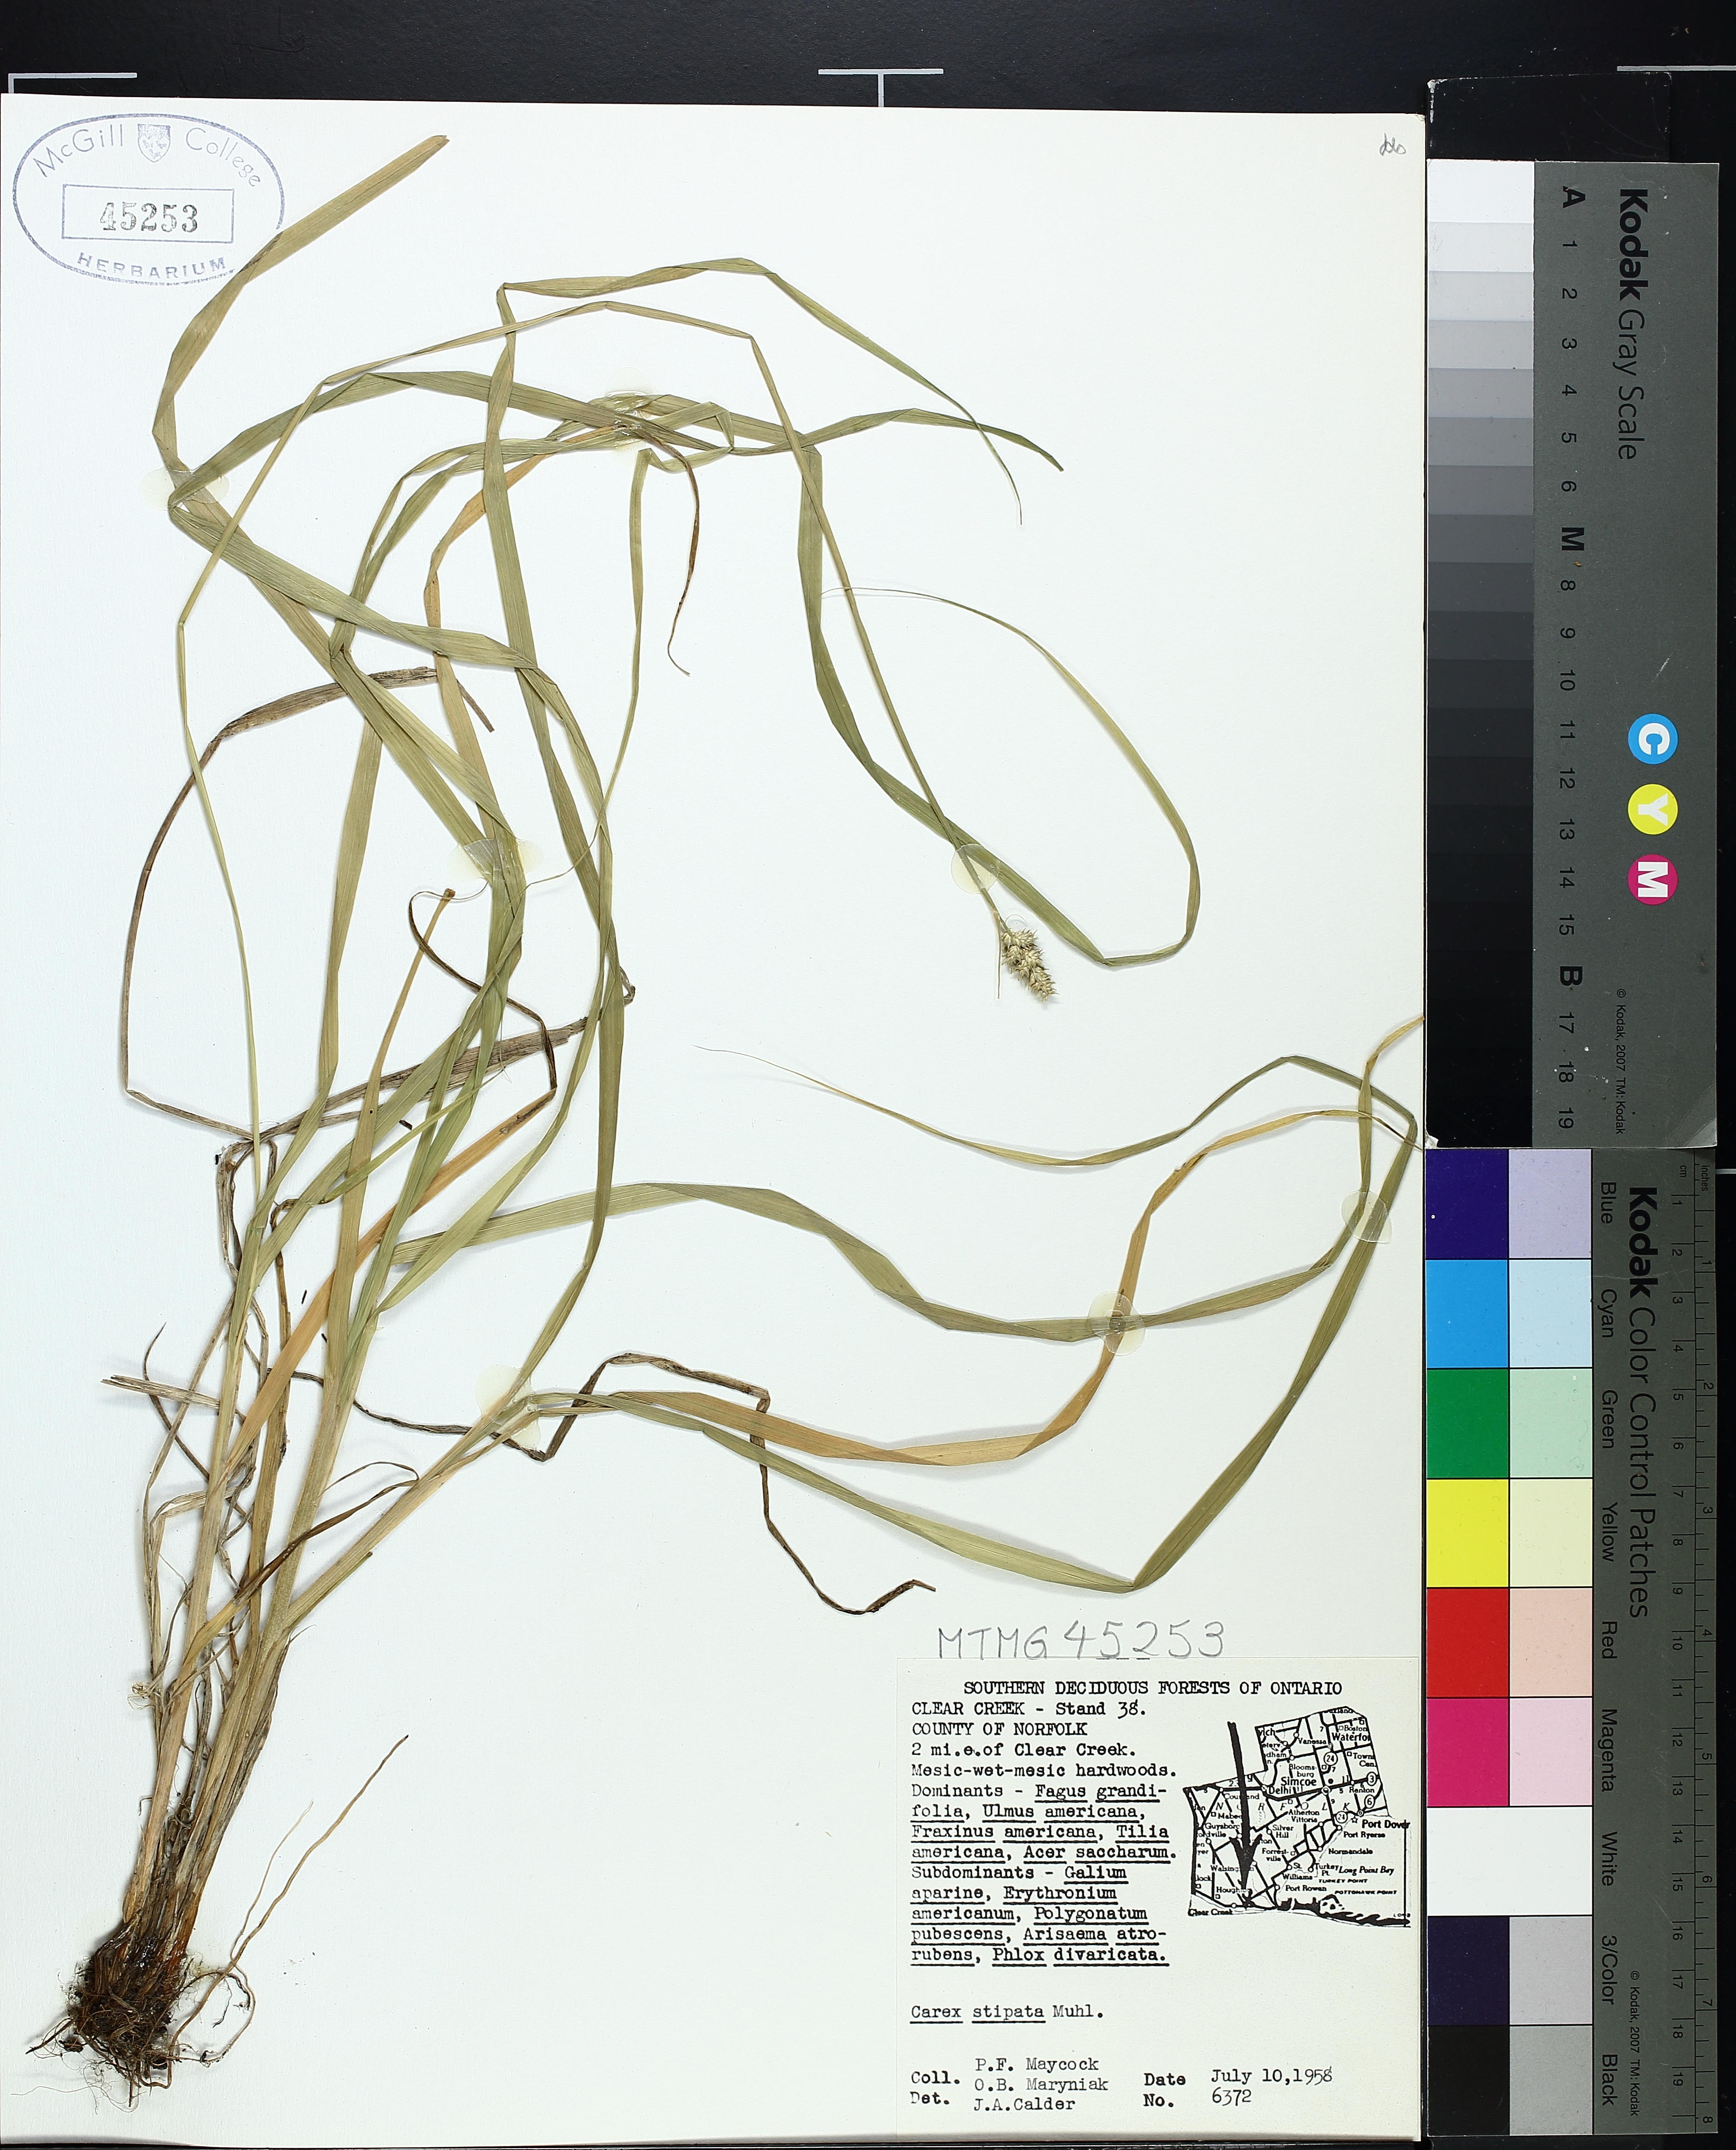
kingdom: Plantae
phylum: Tracheophyta
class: Liliopsida
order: Poales
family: Cyperaceae
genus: Carex
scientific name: Carex stipata
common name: Awl-fruited sedge
